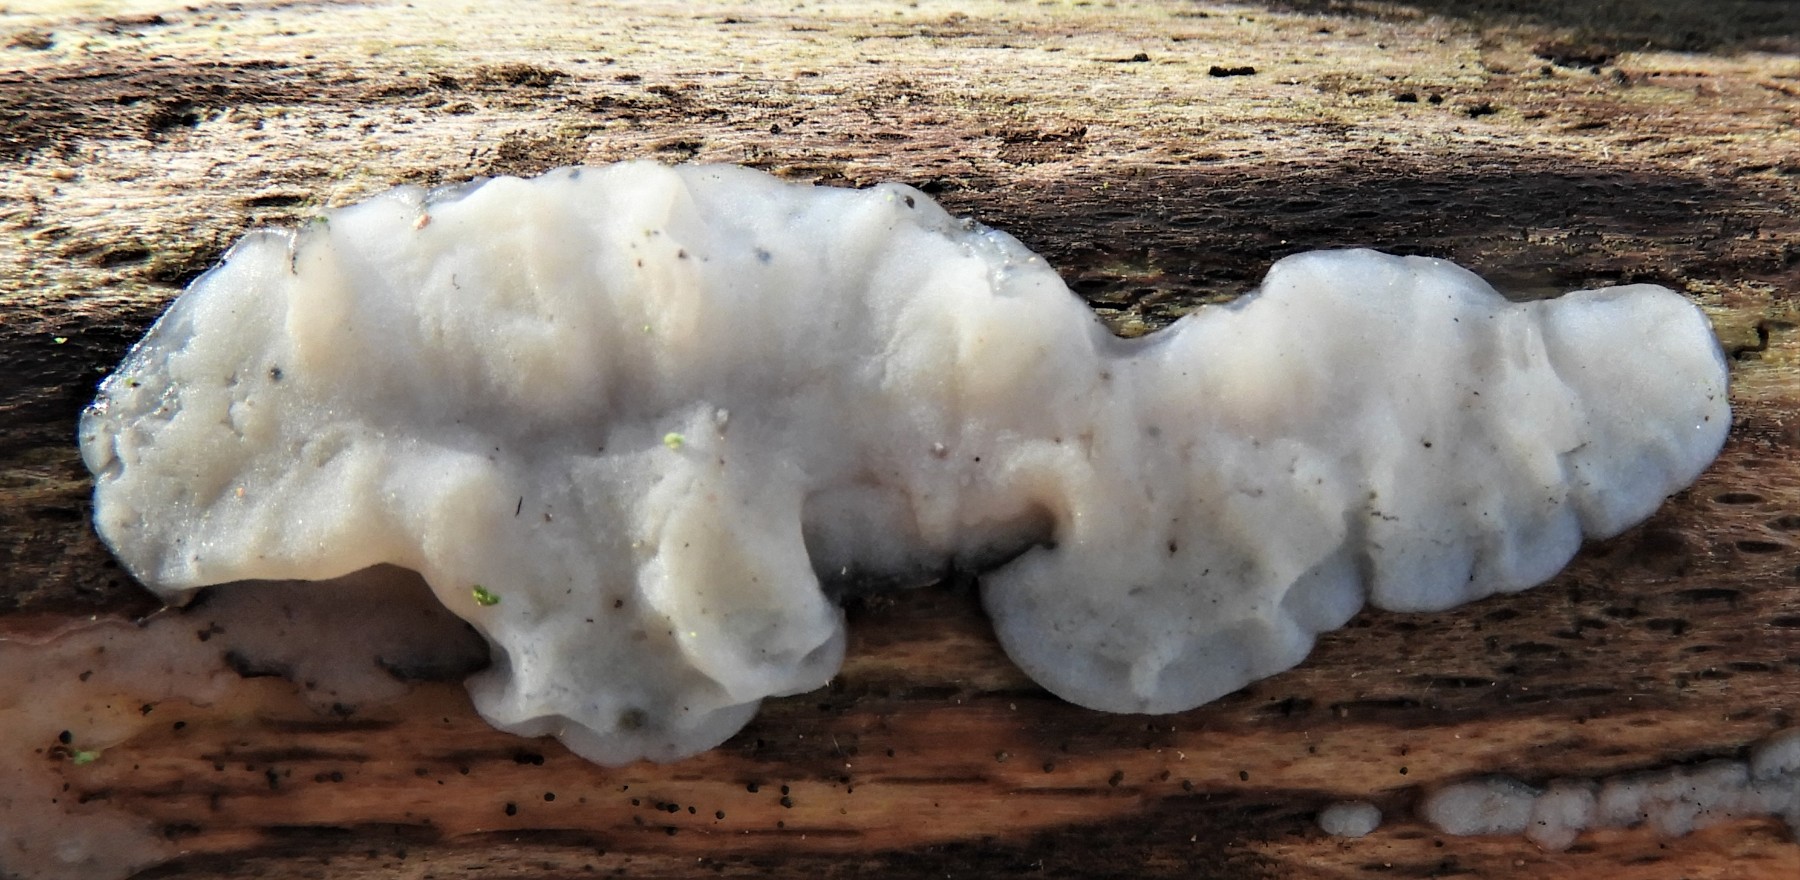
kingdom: Fungi
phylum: Basidiomycota
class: Agaricomycetes
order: Auriculariales
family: Auriculariaceae
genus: Exidia
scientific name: Exidia thuretiana
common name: hvidlig bævretop
